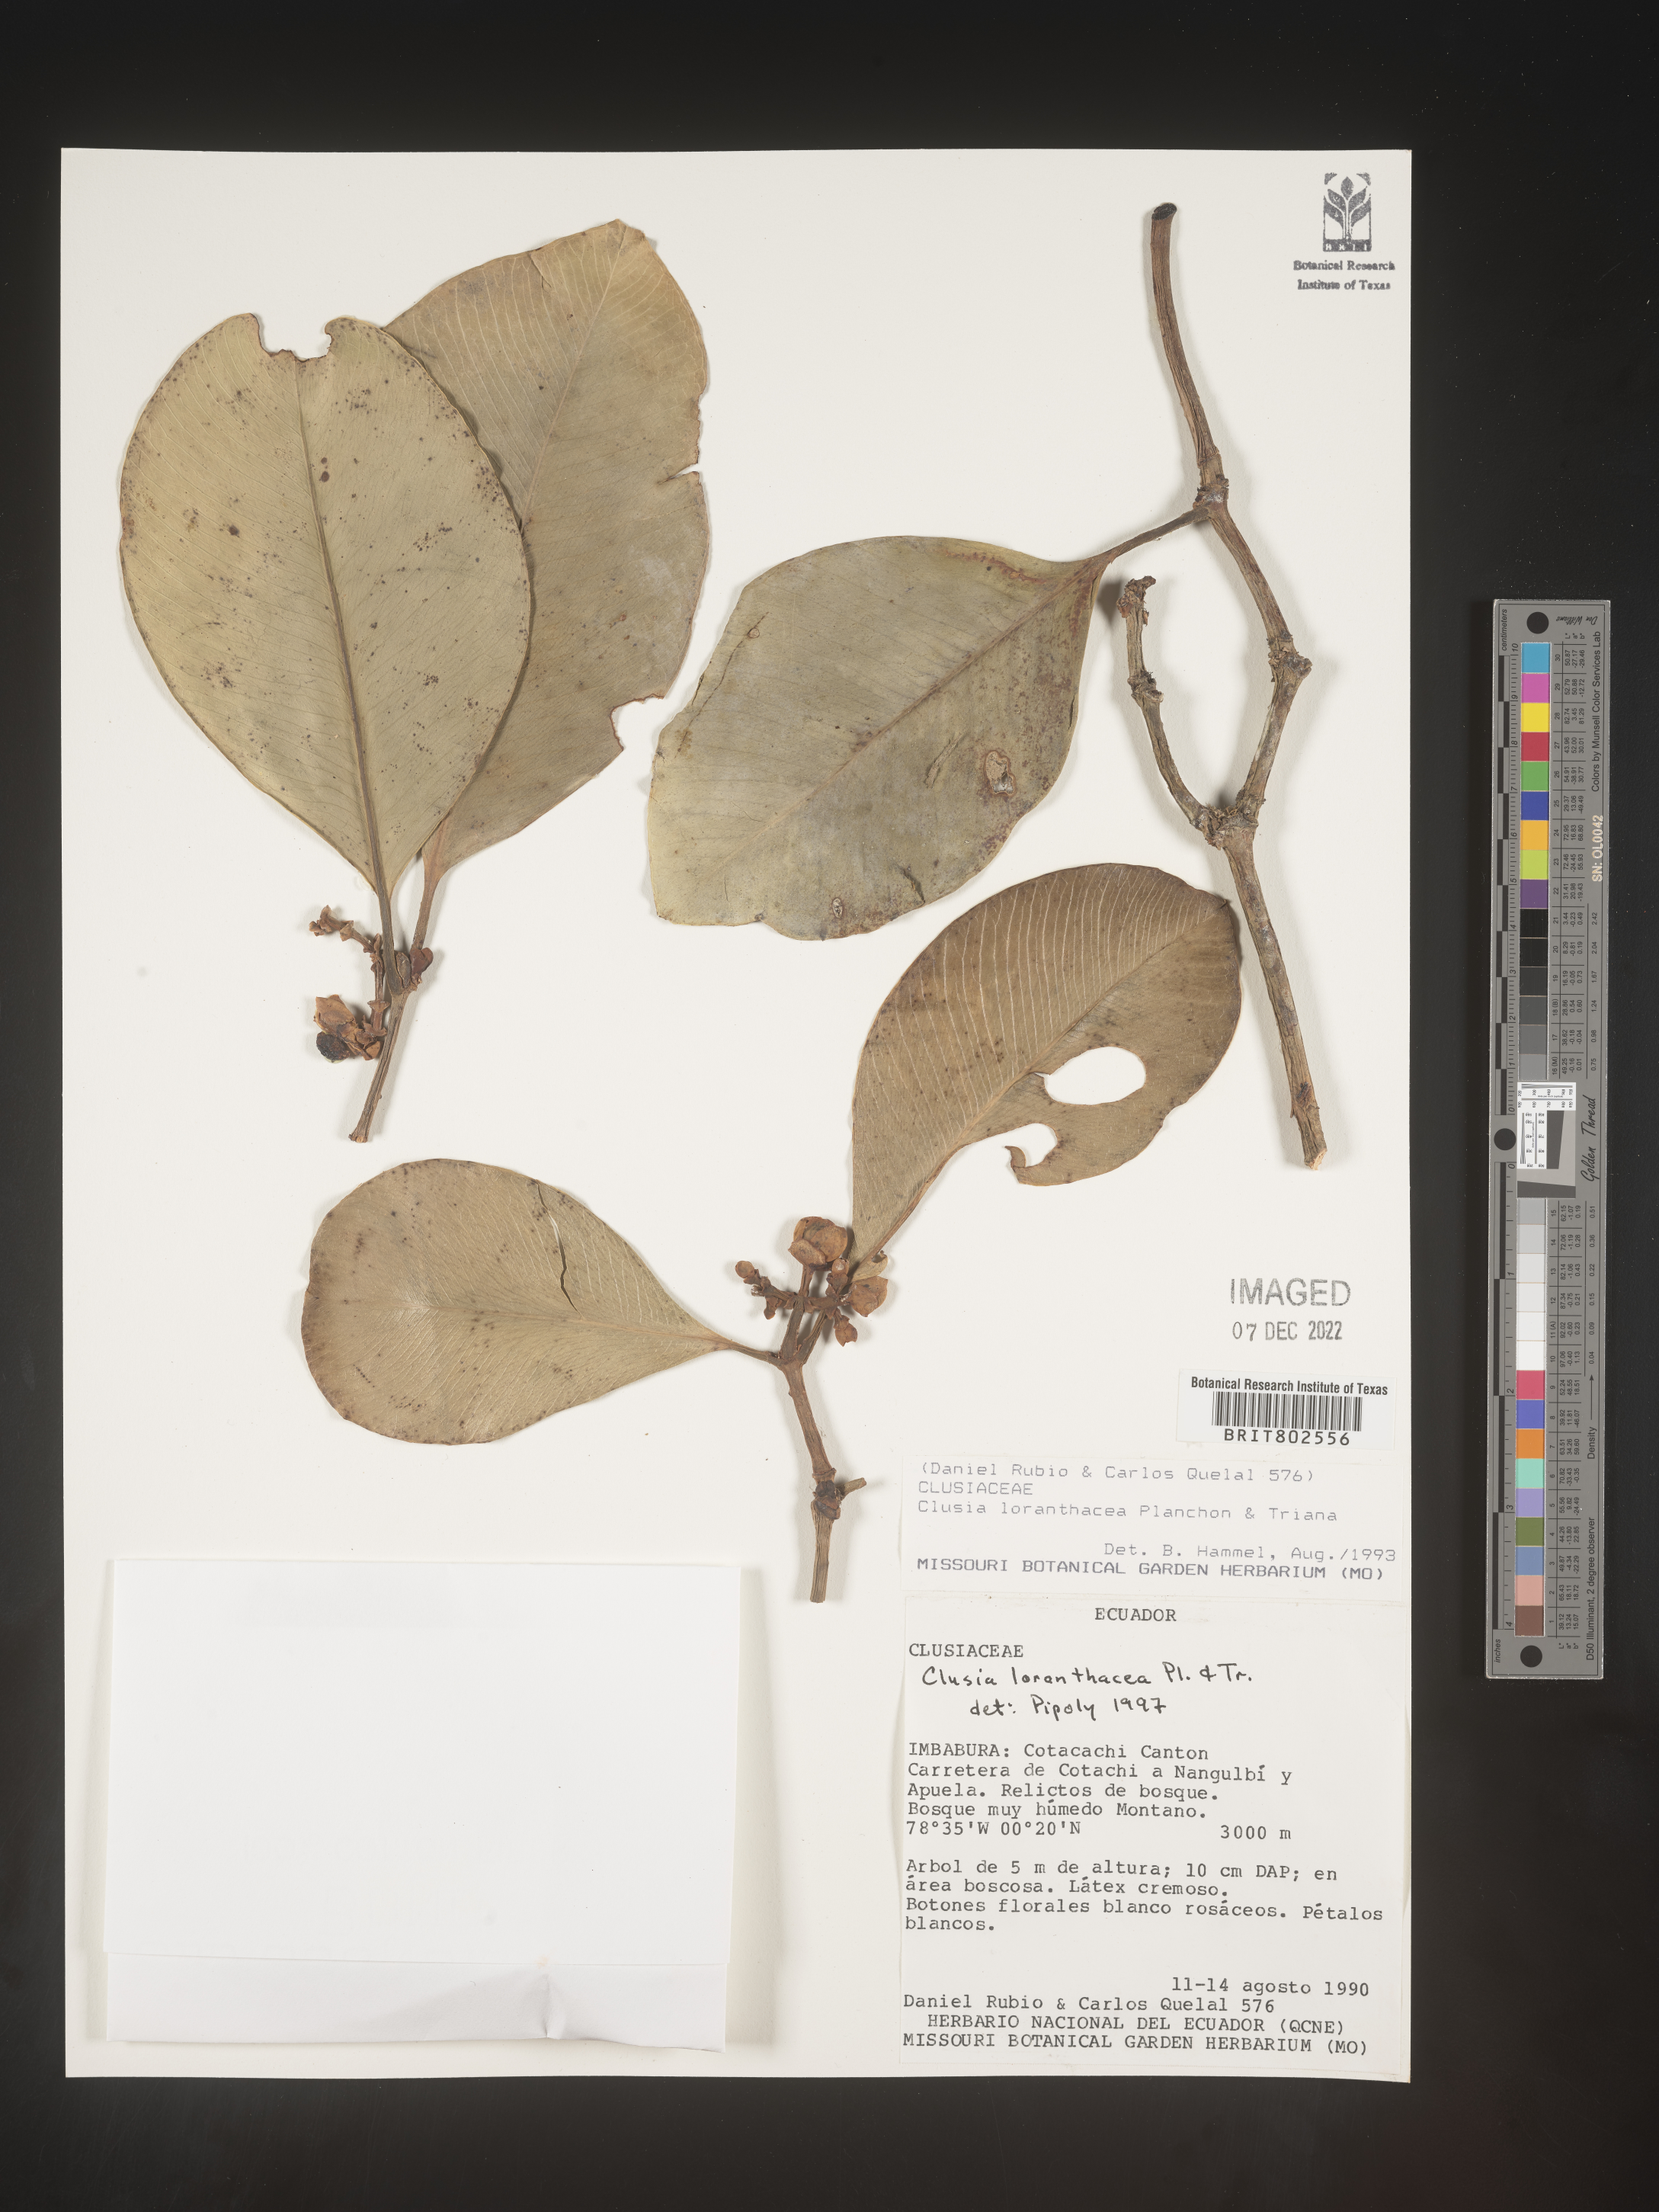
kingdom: Plantae
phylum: Tracheophyta
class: Magnoliopsida
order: Malpighiales
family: Clusiaceae
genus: Clusia
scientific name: Clusia loranthacea
